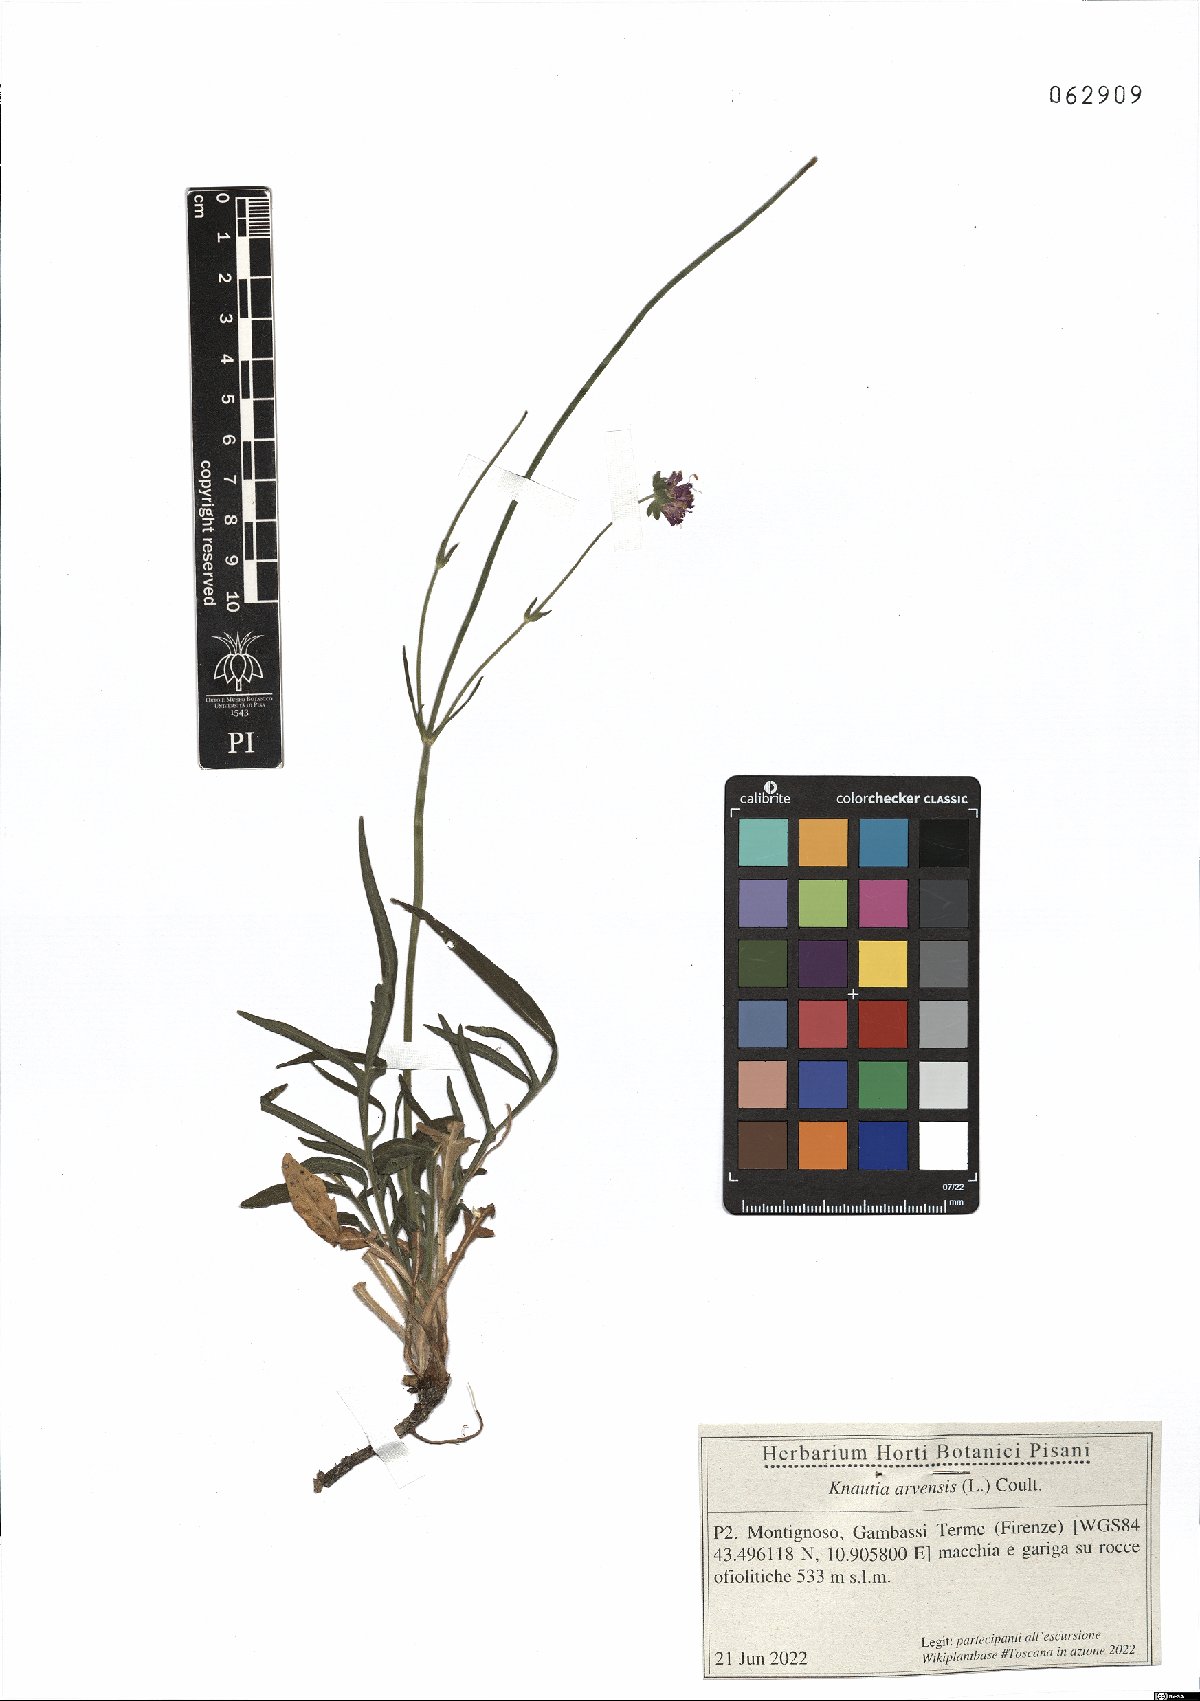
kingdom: Plantae
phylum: Tracheophyta
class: Magnoliopsida
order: Dipsacales
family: Caprifoliaceae
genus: Knautia
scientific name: Knautia arvensis
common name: Field scabiosa
